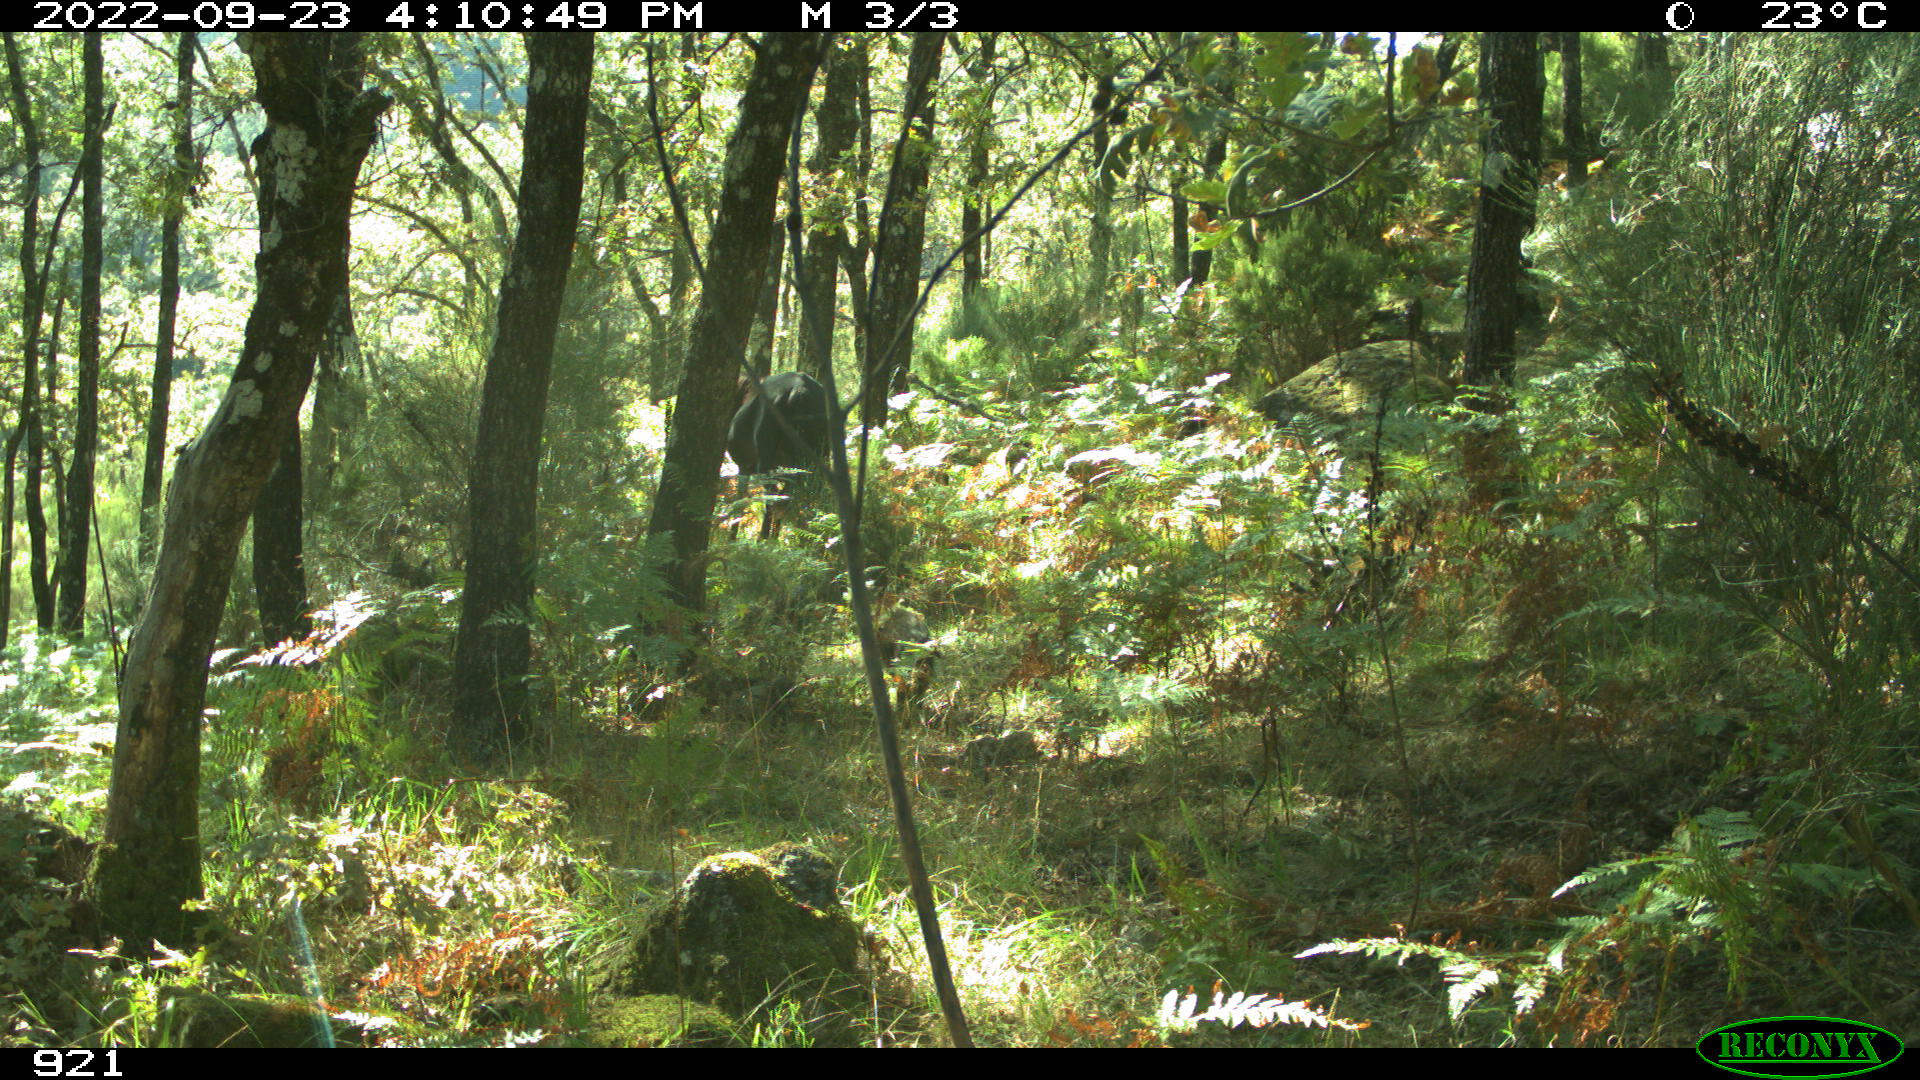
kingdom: Animalia
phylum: Chordata
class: Mammalia
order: Artiodactyla
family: Suidae
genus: Sus
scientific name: Sus scrofa
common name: Wild boar
